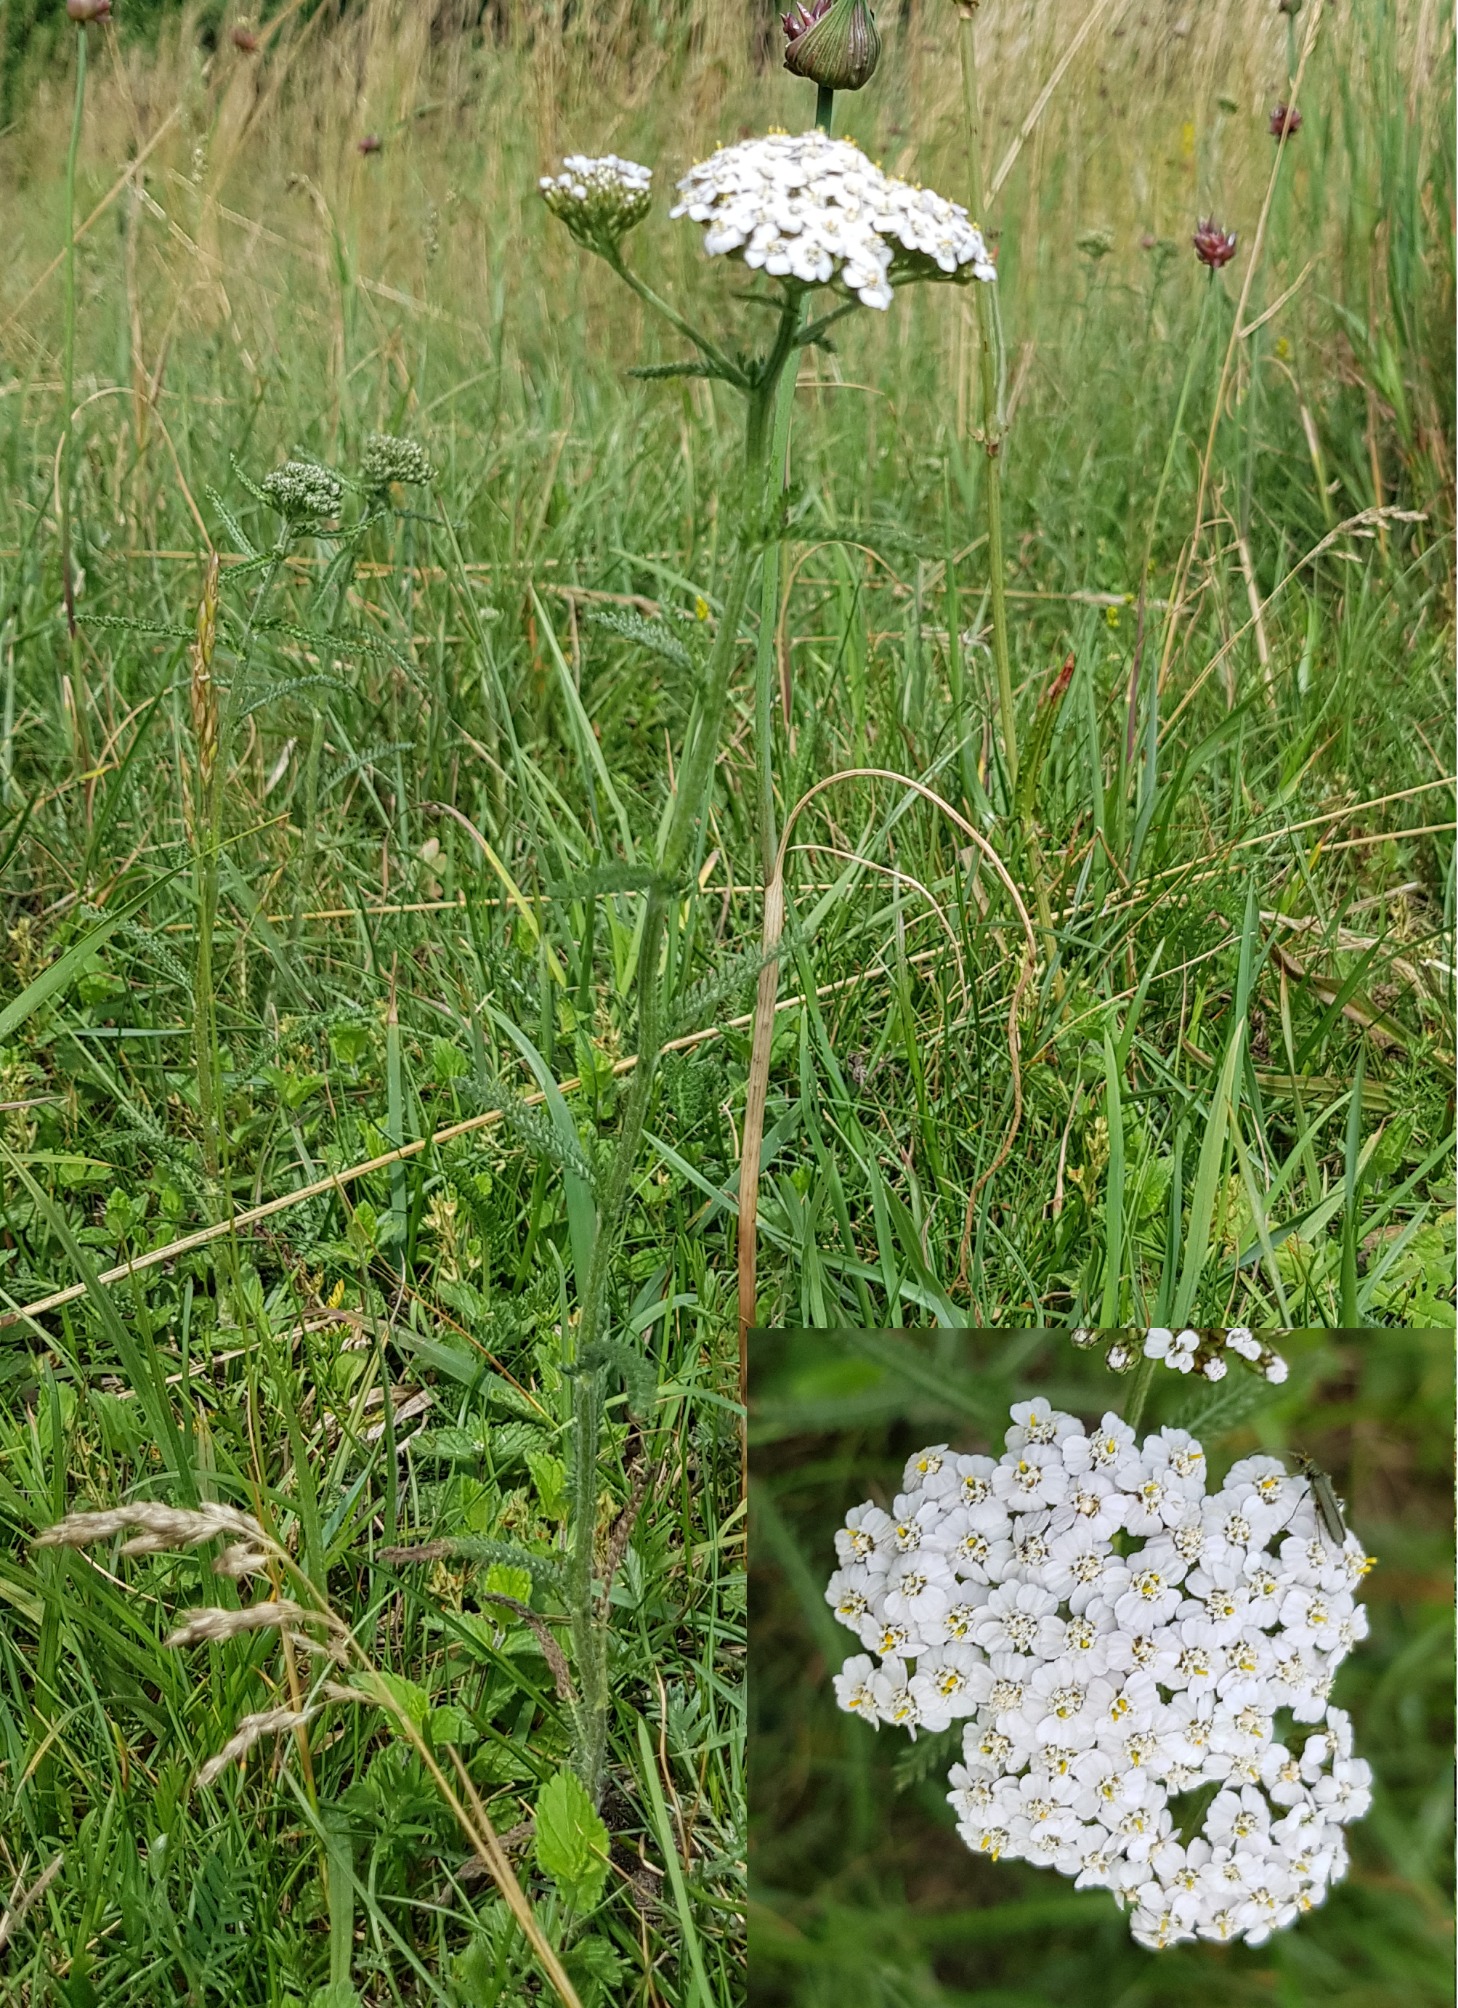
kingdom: Plantae
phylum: Tracheophyta
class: Magnoliopsida
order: Asterales
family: Asteraceae
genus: Achillea
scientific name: Achillea millefolium
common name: Almindelig røllike
